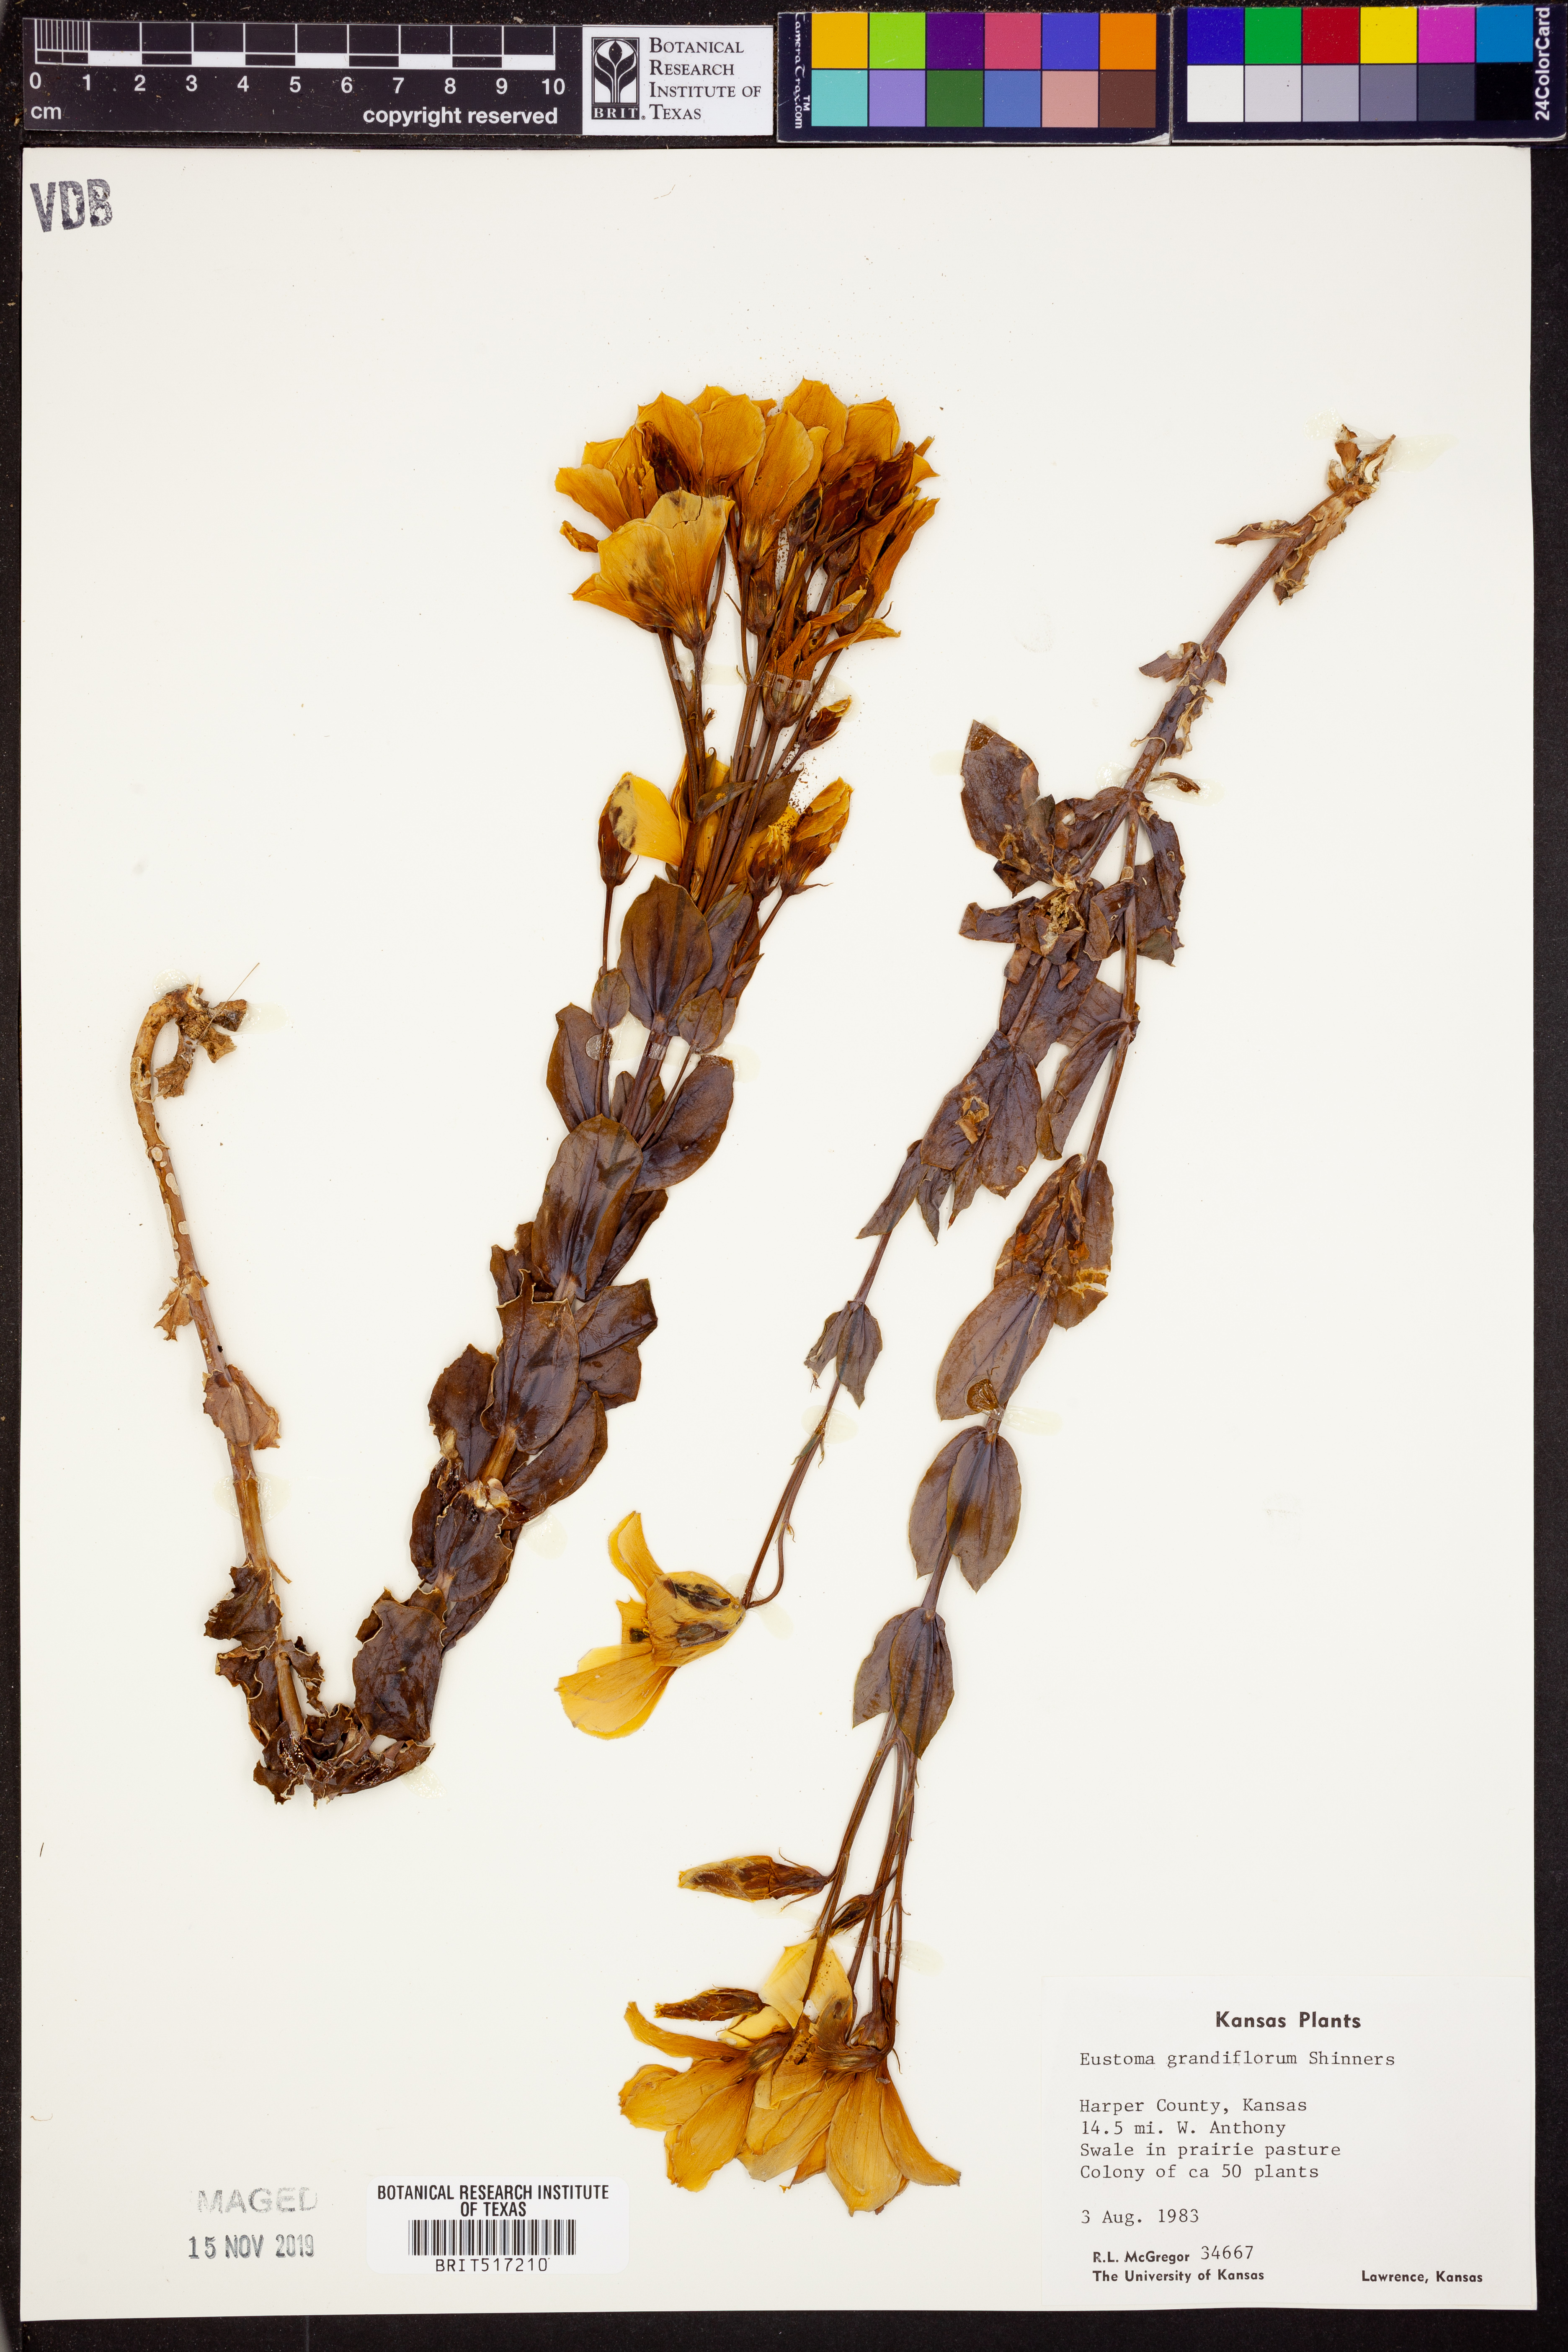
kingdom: Plantae
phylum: Tracheophyta
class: Magnoliopsida
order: Gentianales
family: Gentianaceae
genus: Eustoma
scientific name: Eustoma russellianum
